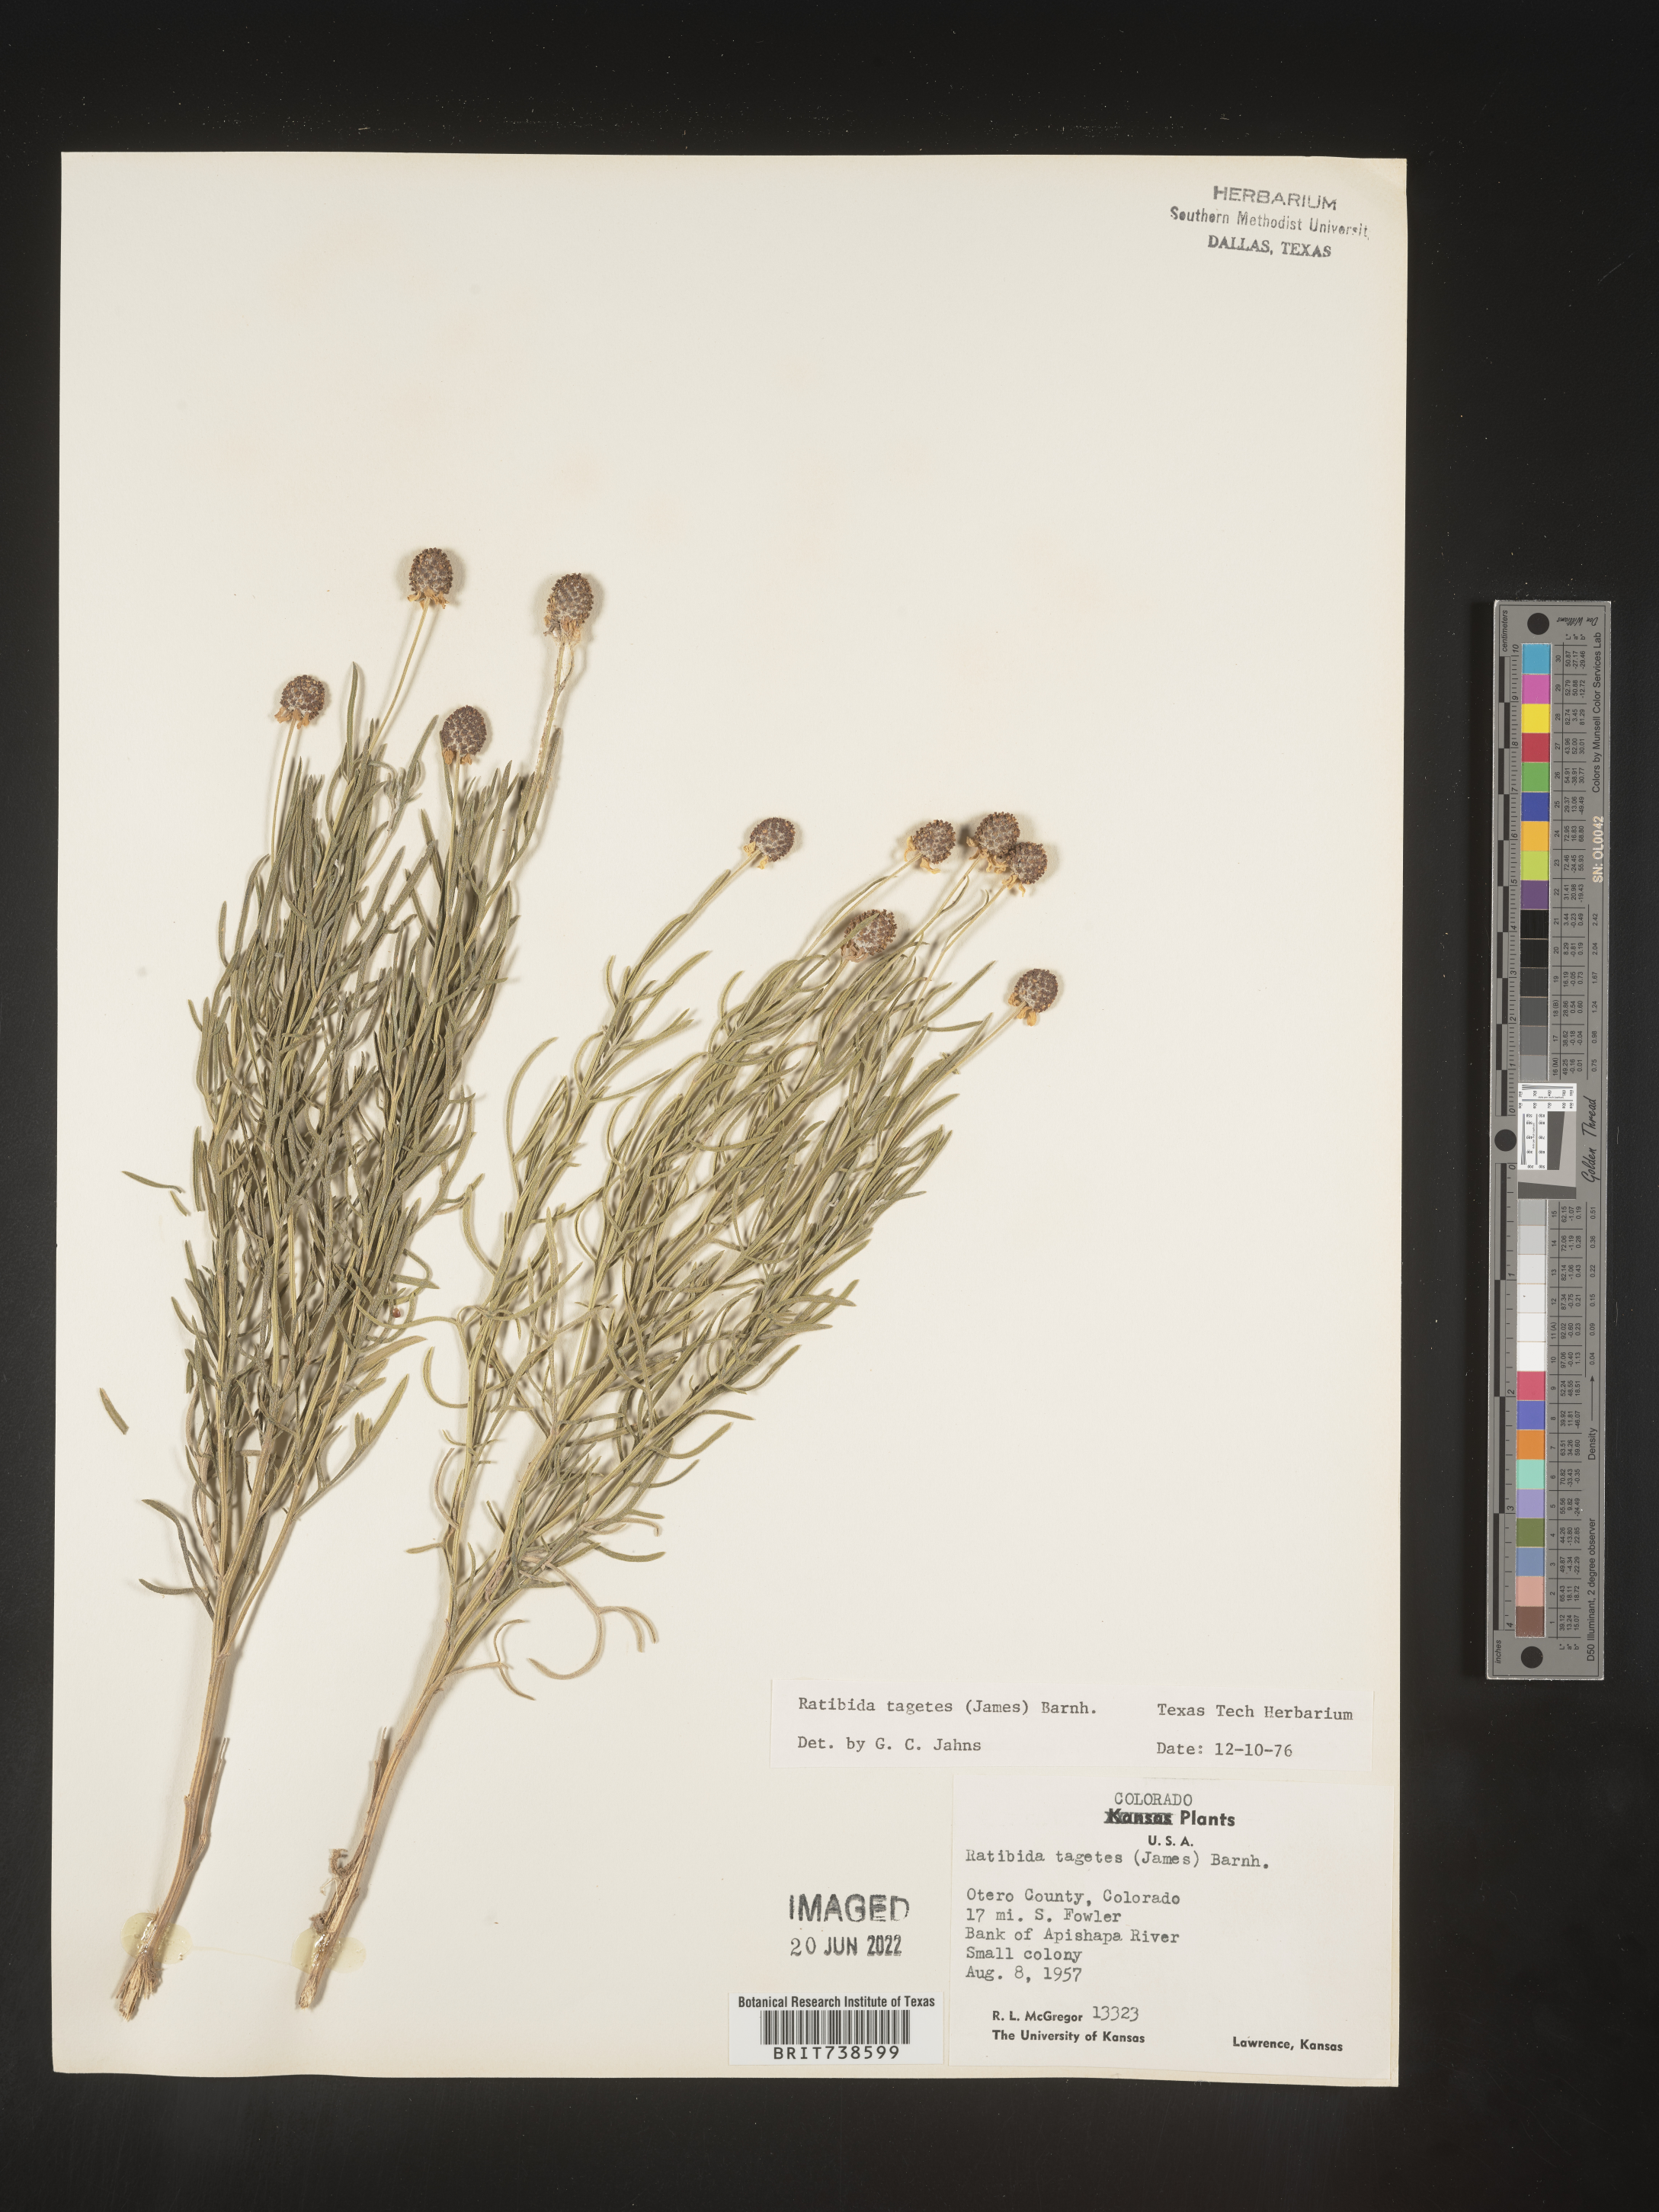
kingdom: Plantae
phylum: Tracheophyta
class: Magnoliopsida
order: Asterales
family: Asteraceae
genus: Ratibida
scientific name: Ratibida tagetes
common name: Green mexican-hat
